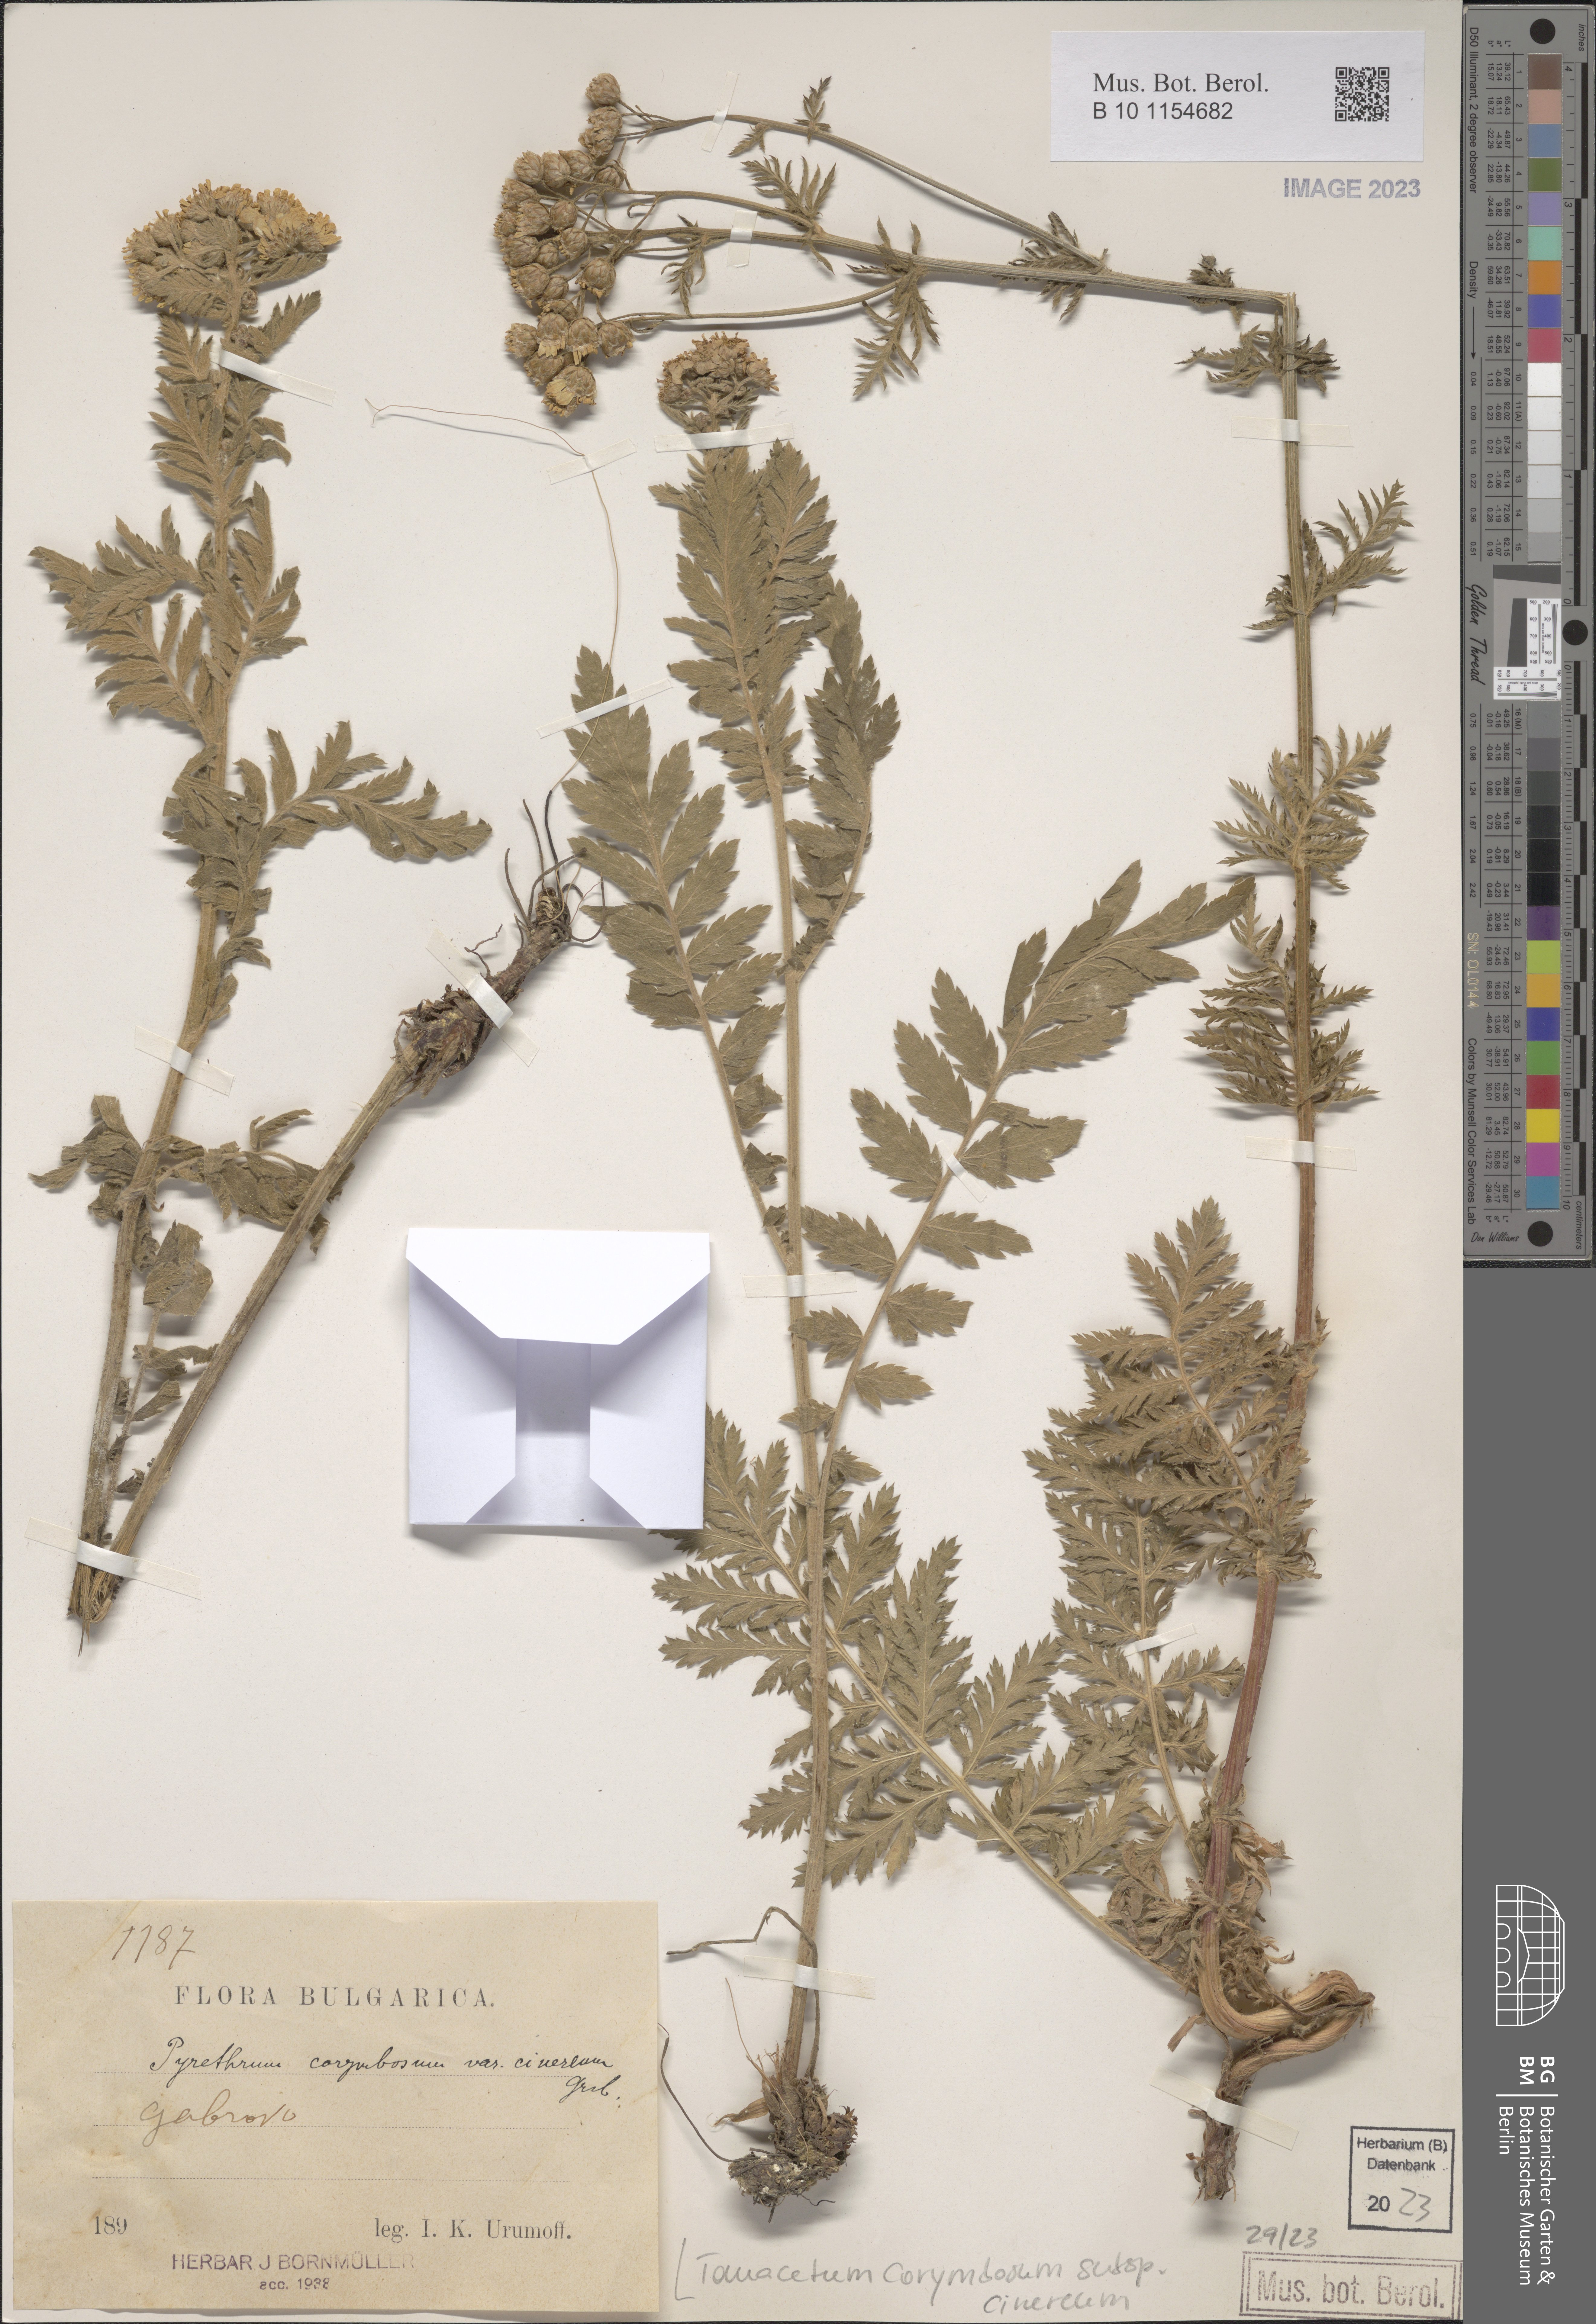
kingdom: Plantae
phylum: Tracheophyta
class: Magnoliopsida
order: Asterales
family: Asteraceae
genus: Tanacetum
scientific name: Tanacetum corymbosum
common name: Scentless feverfew
